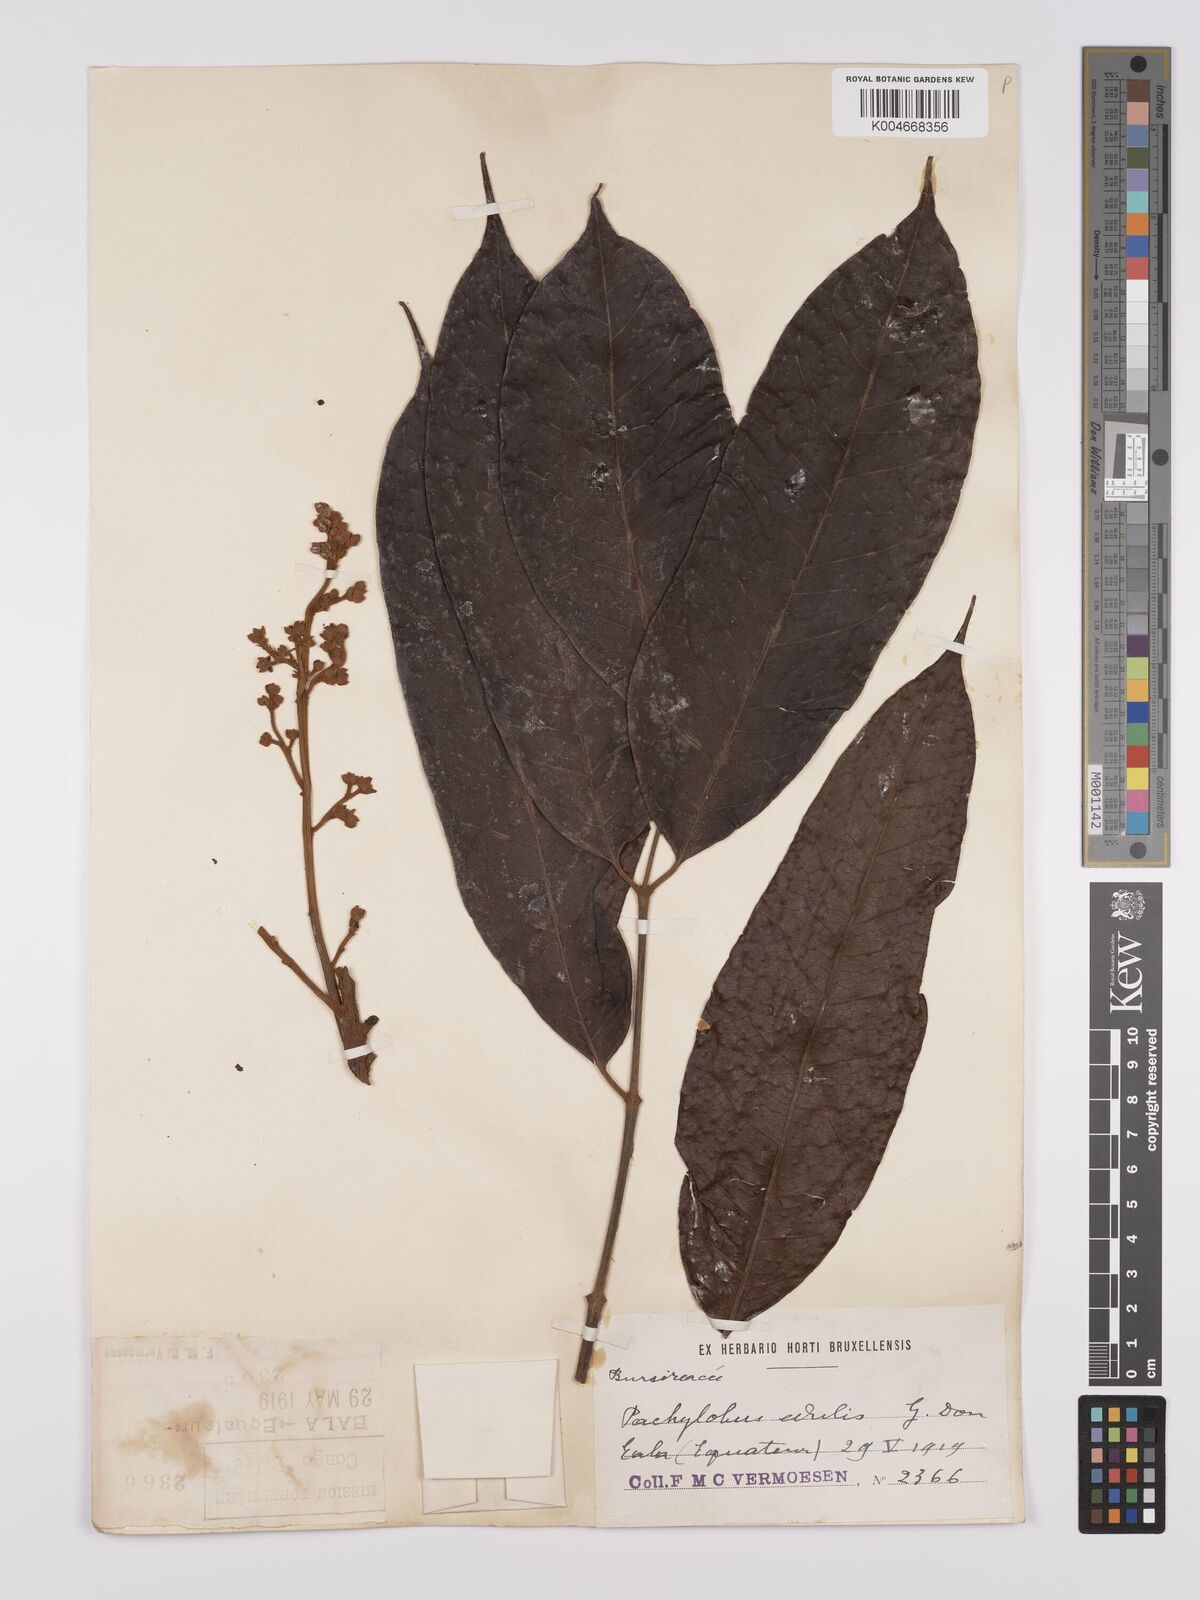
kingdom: Plantae
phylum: Tracheophyta
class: Magnoliopsida
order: Sapindales
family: Burseraceae
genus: Pachylobus
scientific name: Pachylobus edulis
